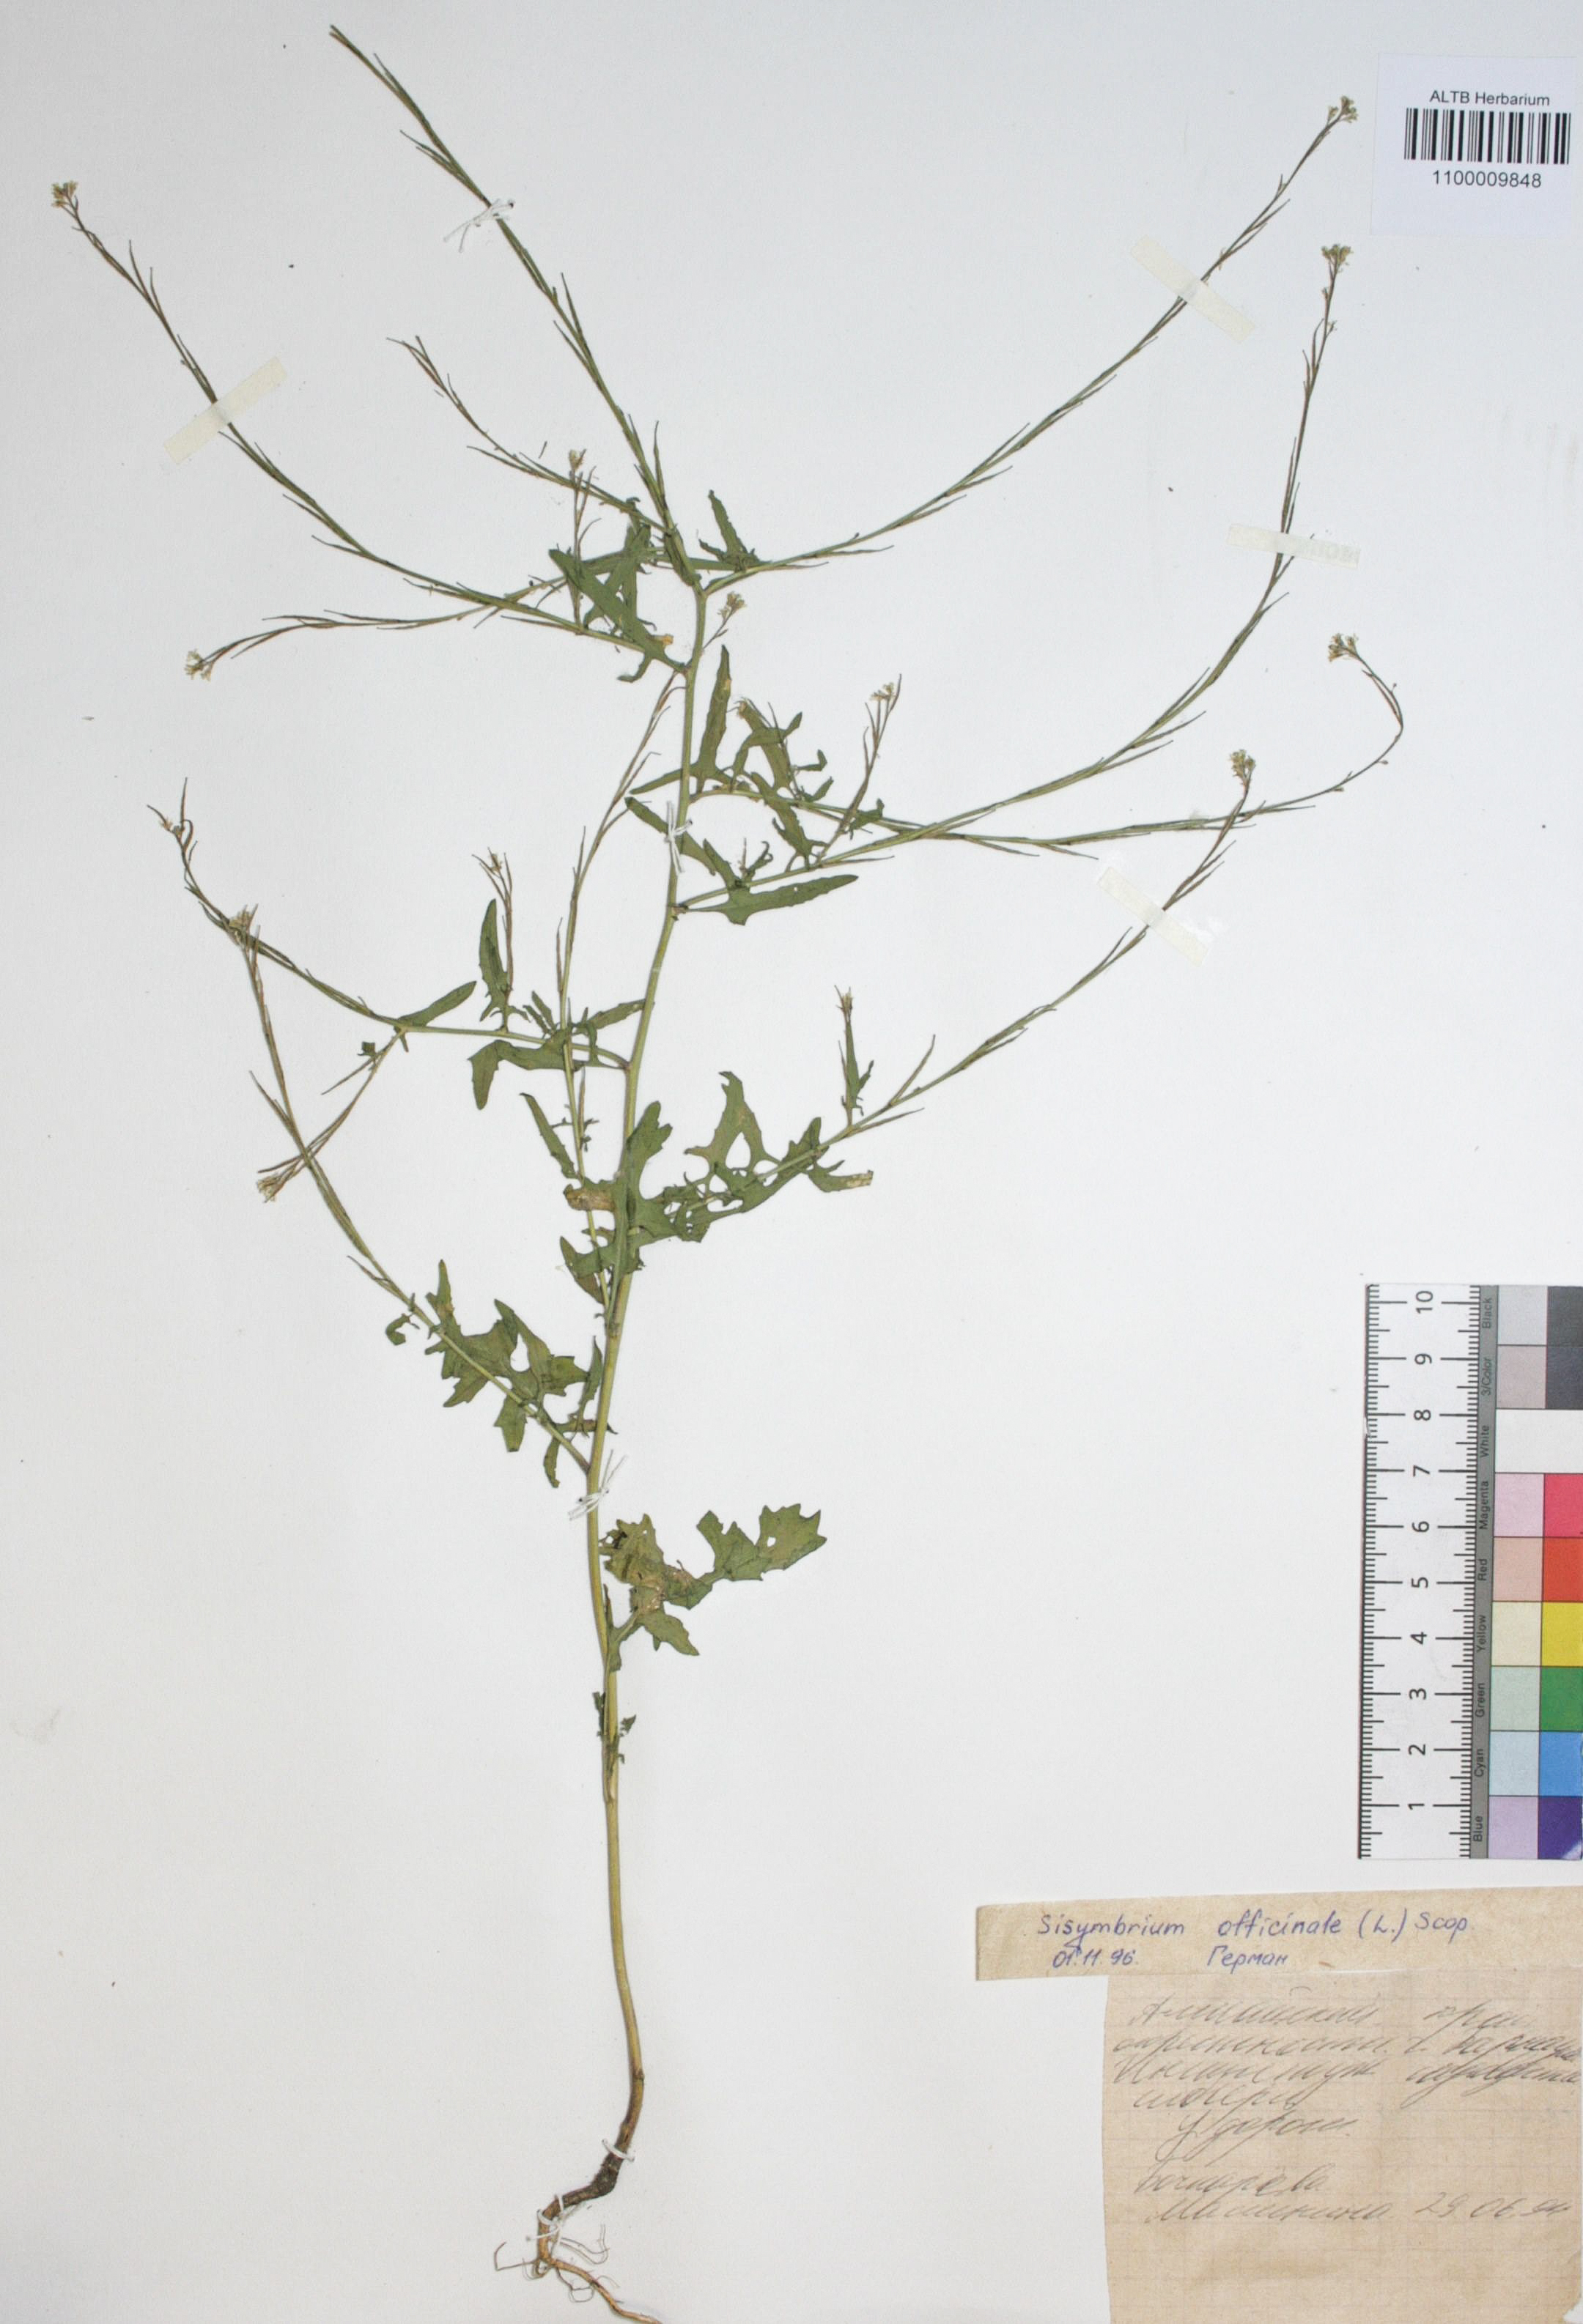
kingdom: Plantae
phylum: Tracheophyta
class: Magnoliopsida
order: Brassicales
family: Brassicaceae
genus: Sisymbrium
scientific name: Sisymbrium officinale
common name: Hedge mustard
